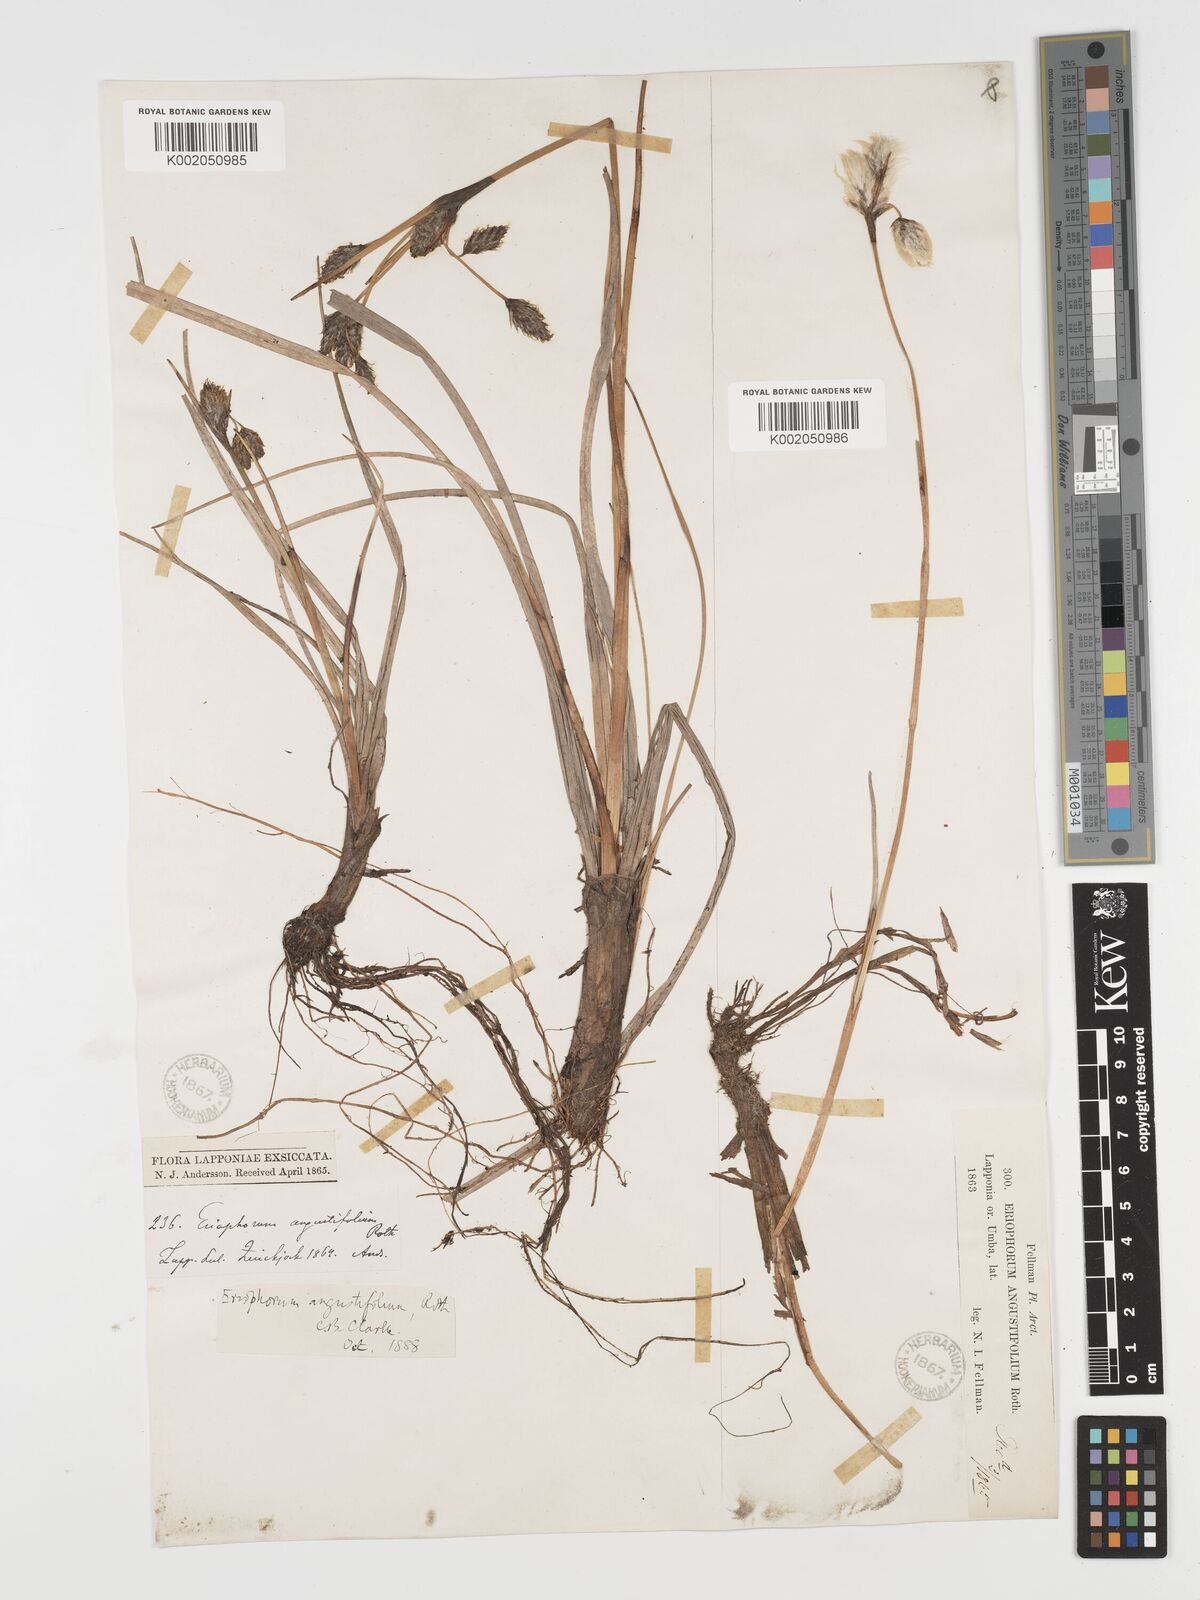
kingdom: Plantae
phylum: Tracheophyta
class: Liliopsida
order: Poales
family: Cyperaceae
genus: Eriophorum
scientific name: Eriophorum angustifolium
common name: Common cottongrass
